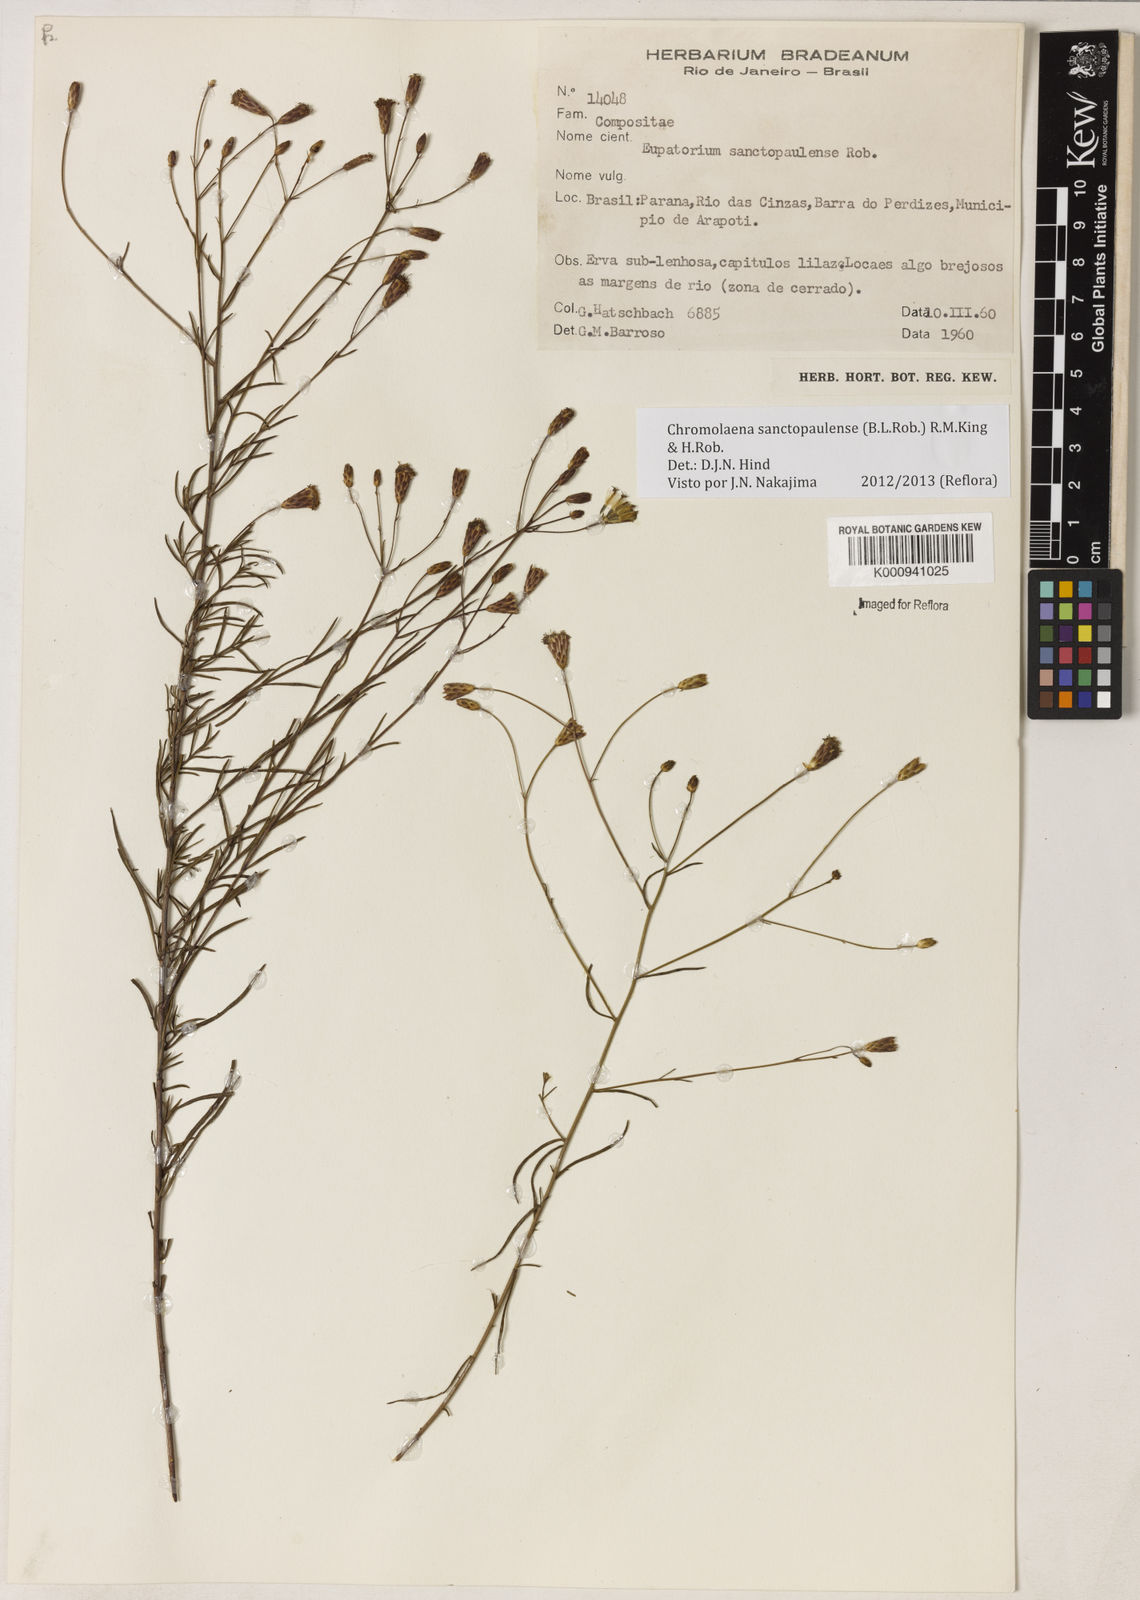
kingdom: Plantae
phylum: Tracheophyta
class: Magnoliopsida
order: Asterales
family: Asteraceae
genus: Chromolaena
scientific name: Chromolaena
